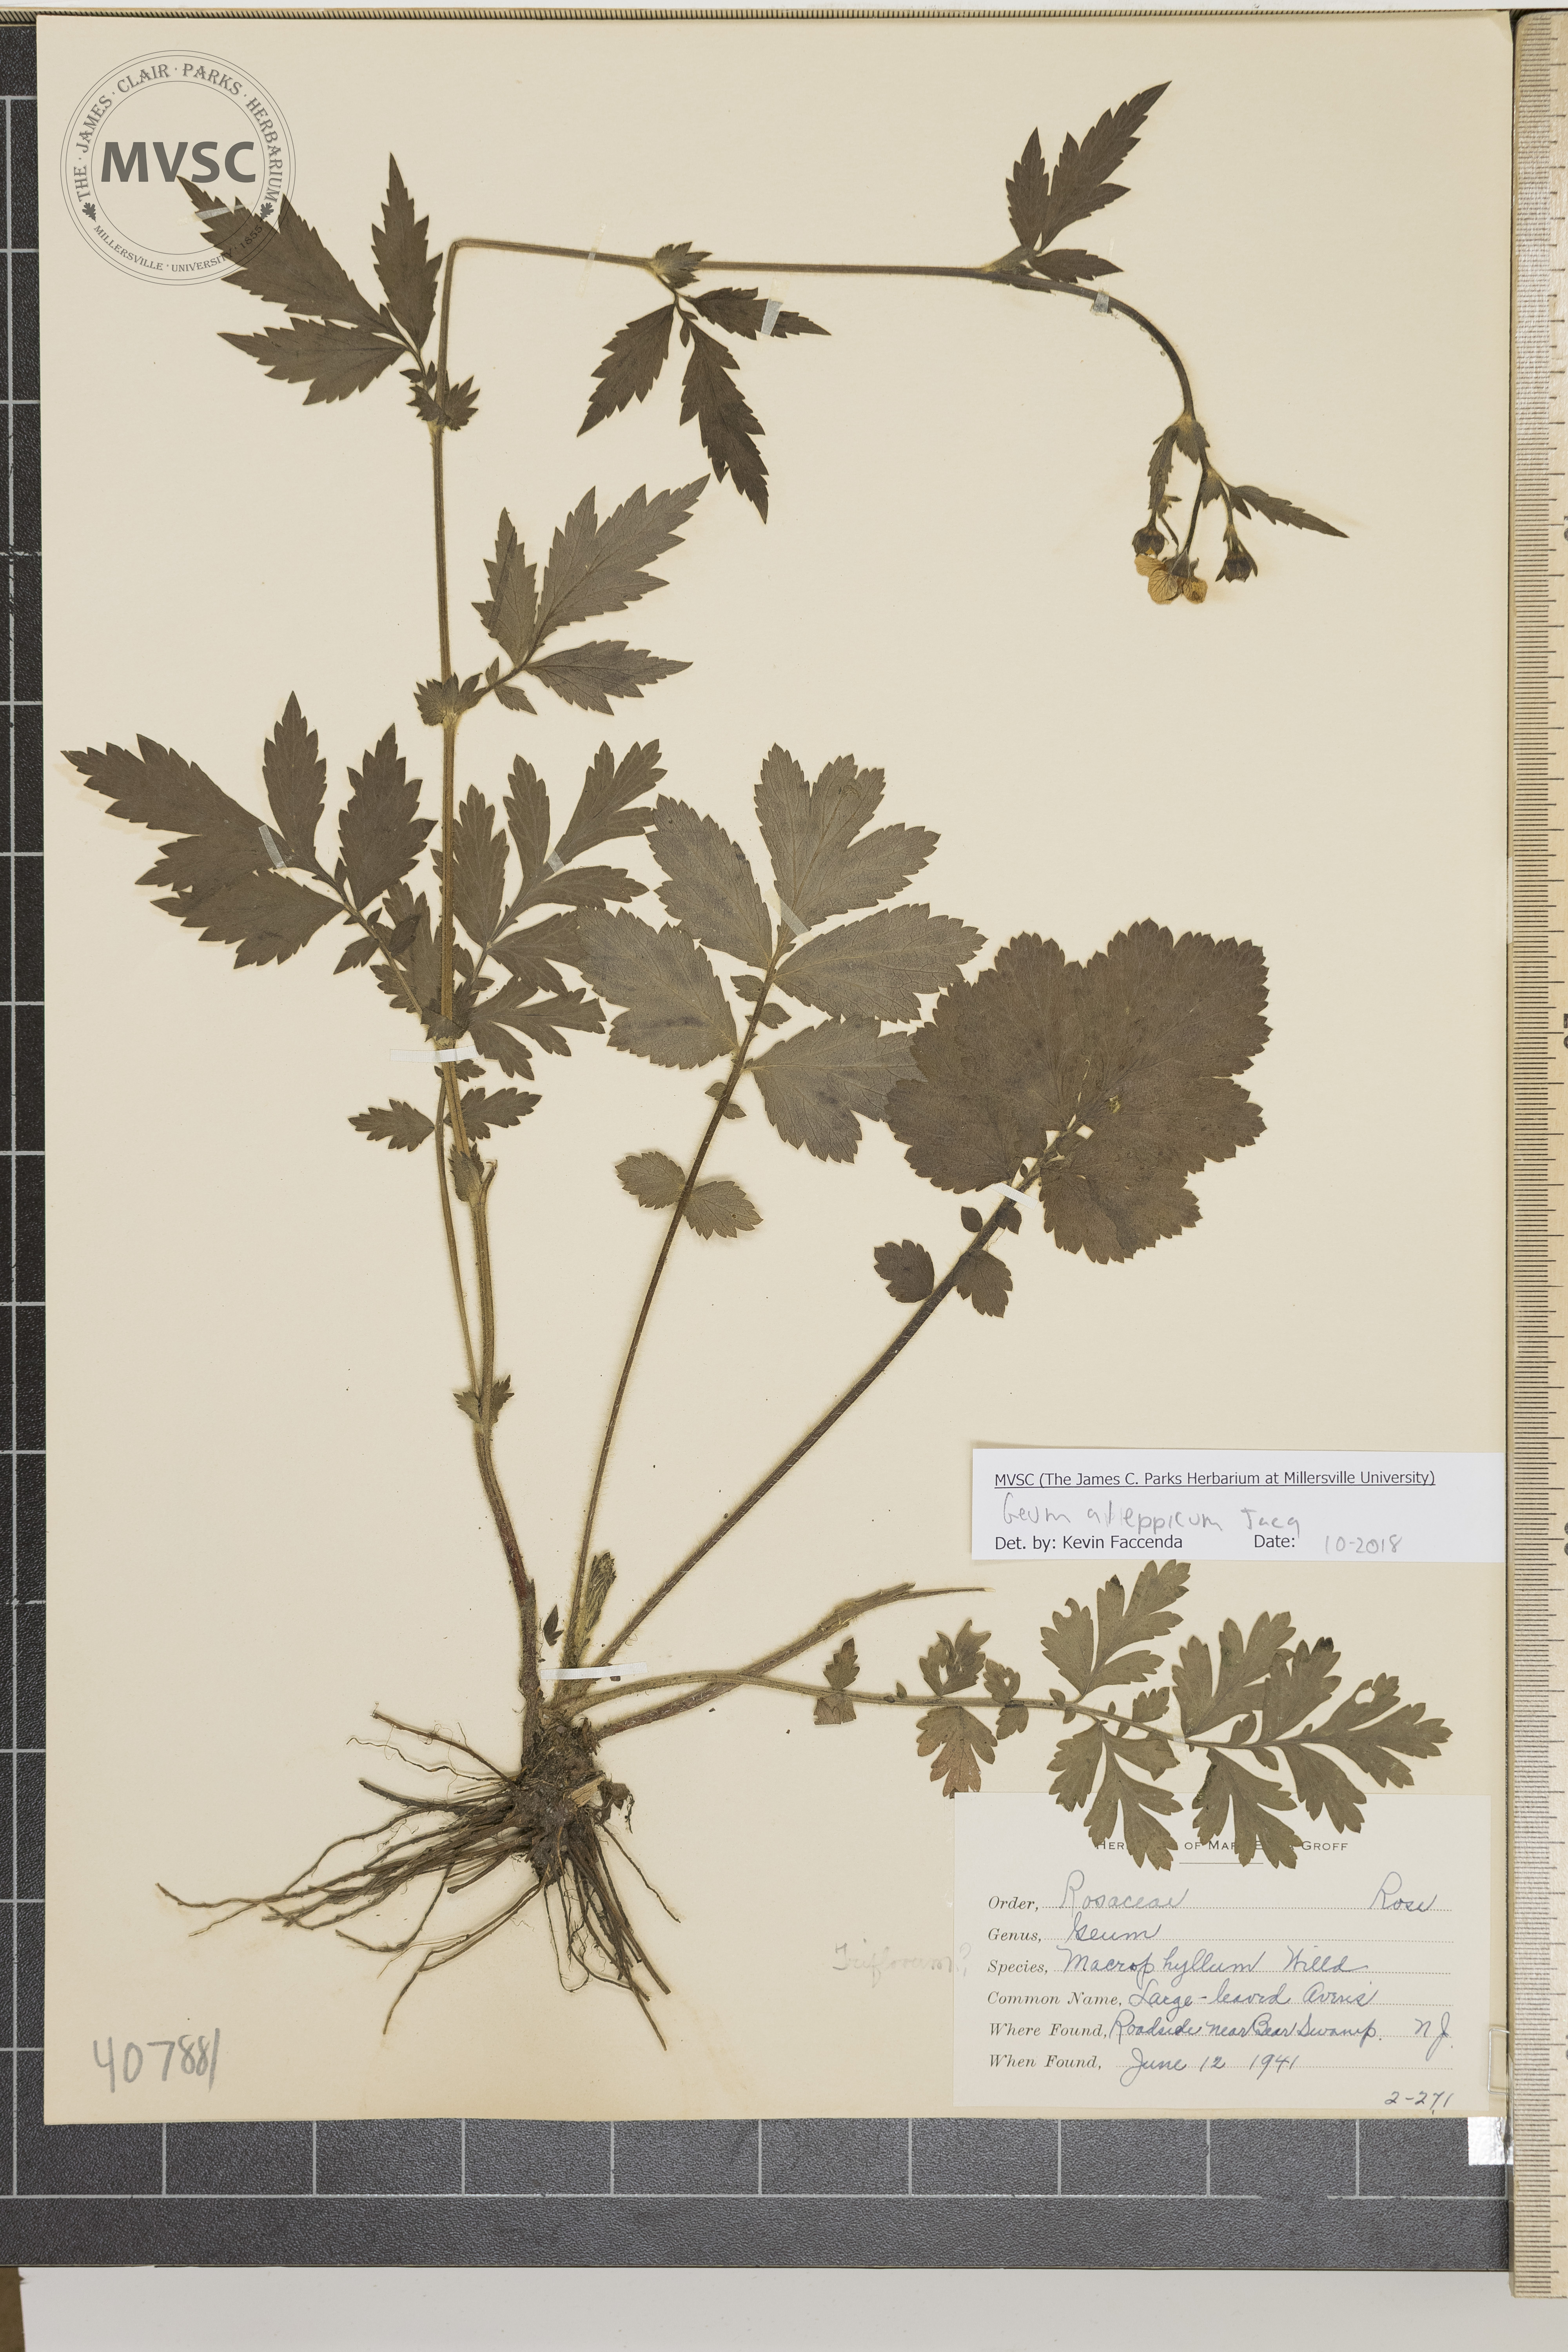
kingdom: Plantae
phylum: Tracheophyta
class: Magnoliopsida
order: Rosales
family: Rosaceae
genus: Geum
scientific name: Geum aleppicum
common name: Large-leaved Avens
